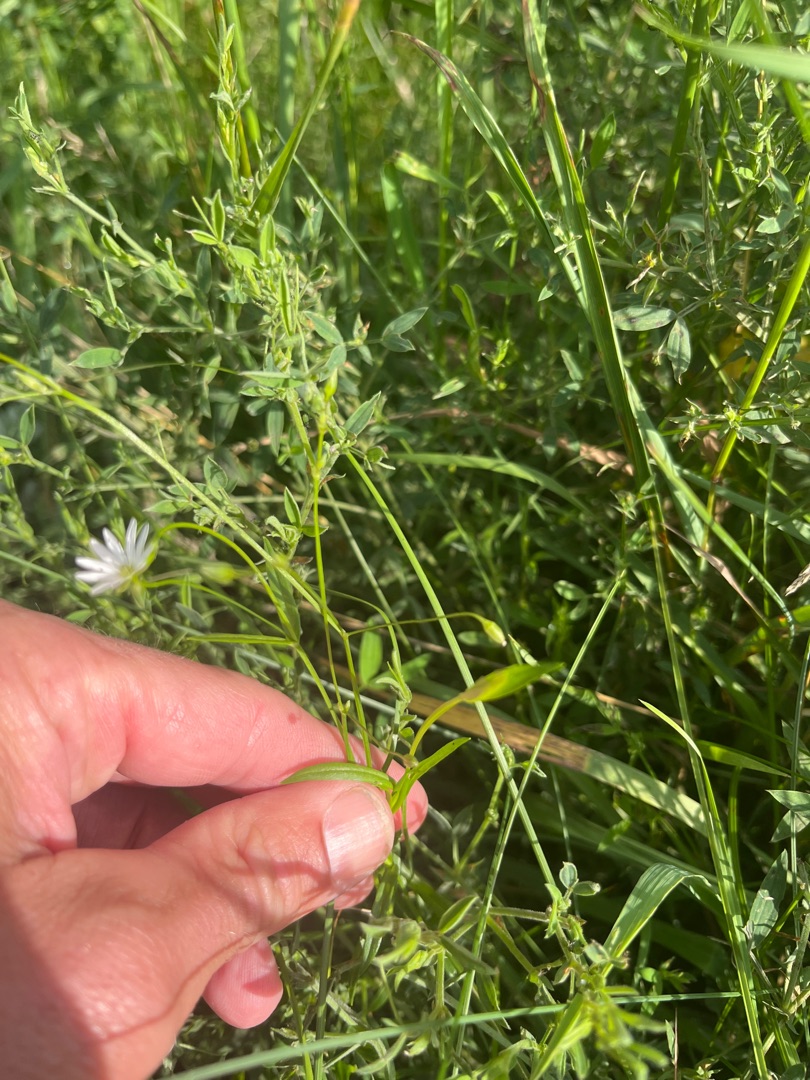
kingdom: Plantae
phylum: Tracheophyta
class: Magnoliopsida
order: Caryophyllales
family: Caryophyllaceae
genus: Stellaria
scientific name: Stellaria graminea
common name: Græsbladet fladstjerne
